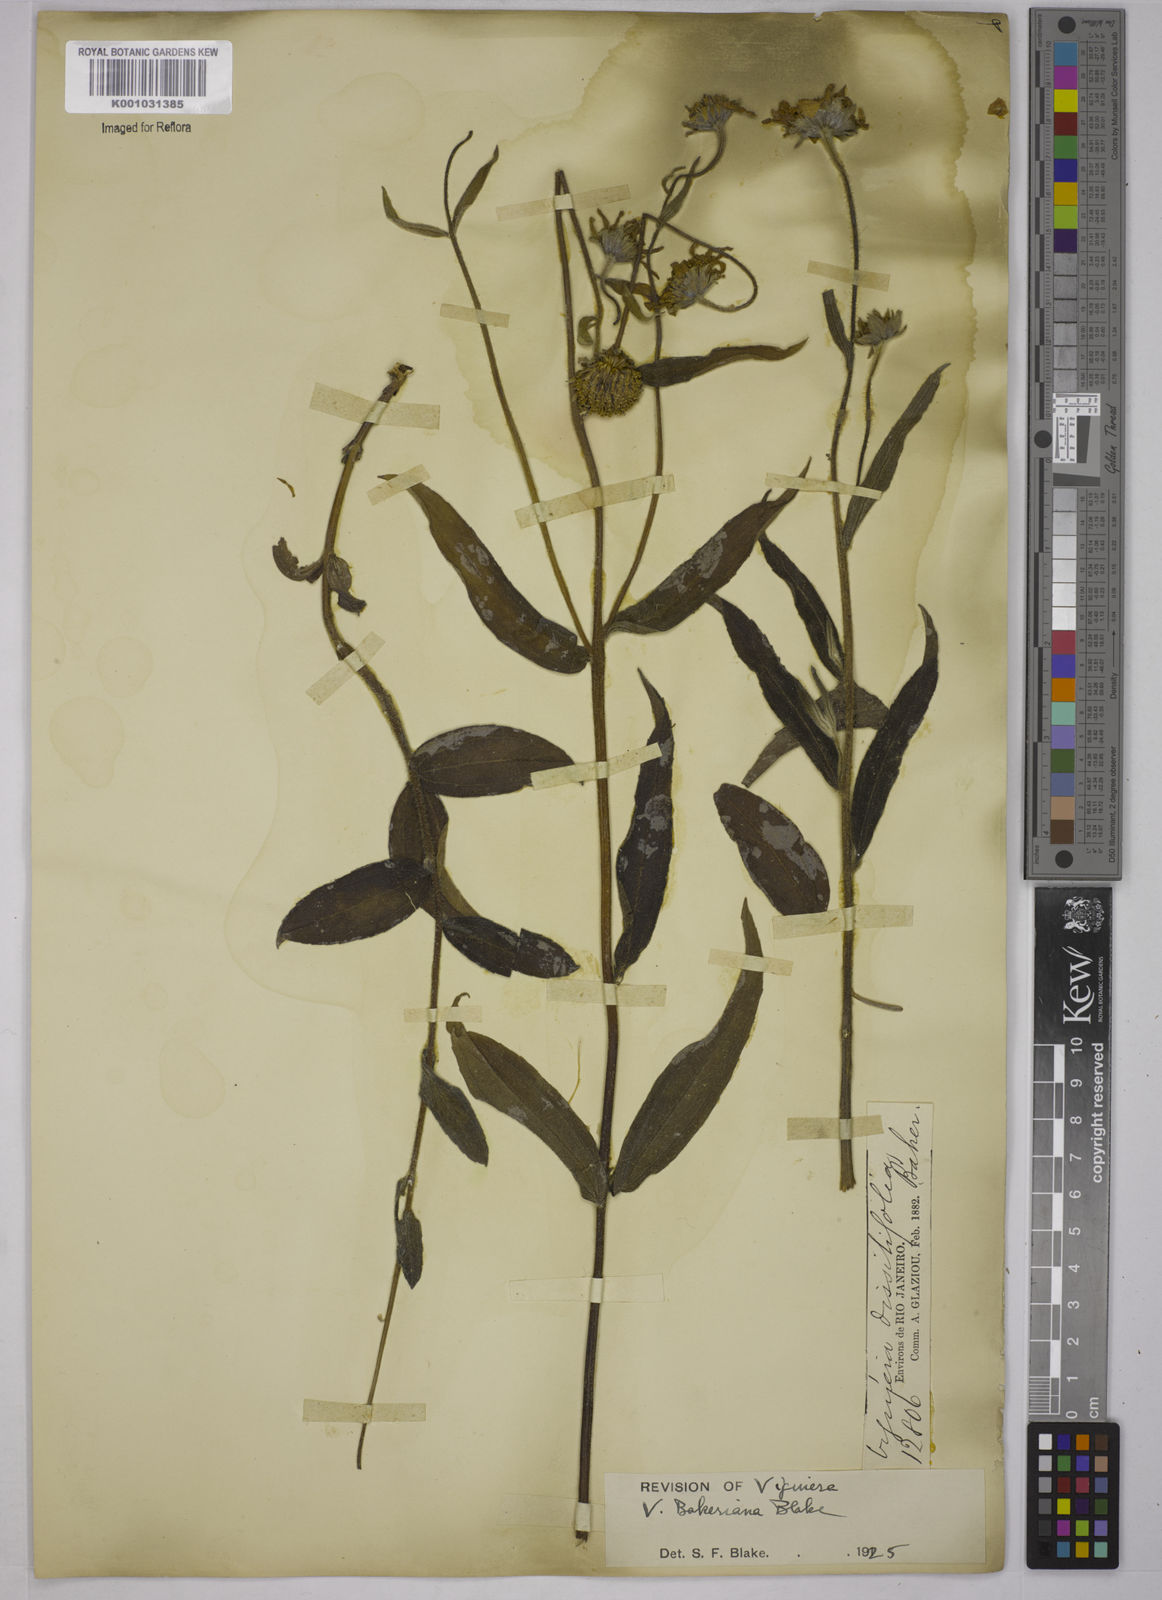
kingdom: Plantae
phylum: Tracheophyta
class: Magnoliopsida
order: Asterales
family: Asteraceae
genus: Aldama
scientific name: Aldama bakeriana
